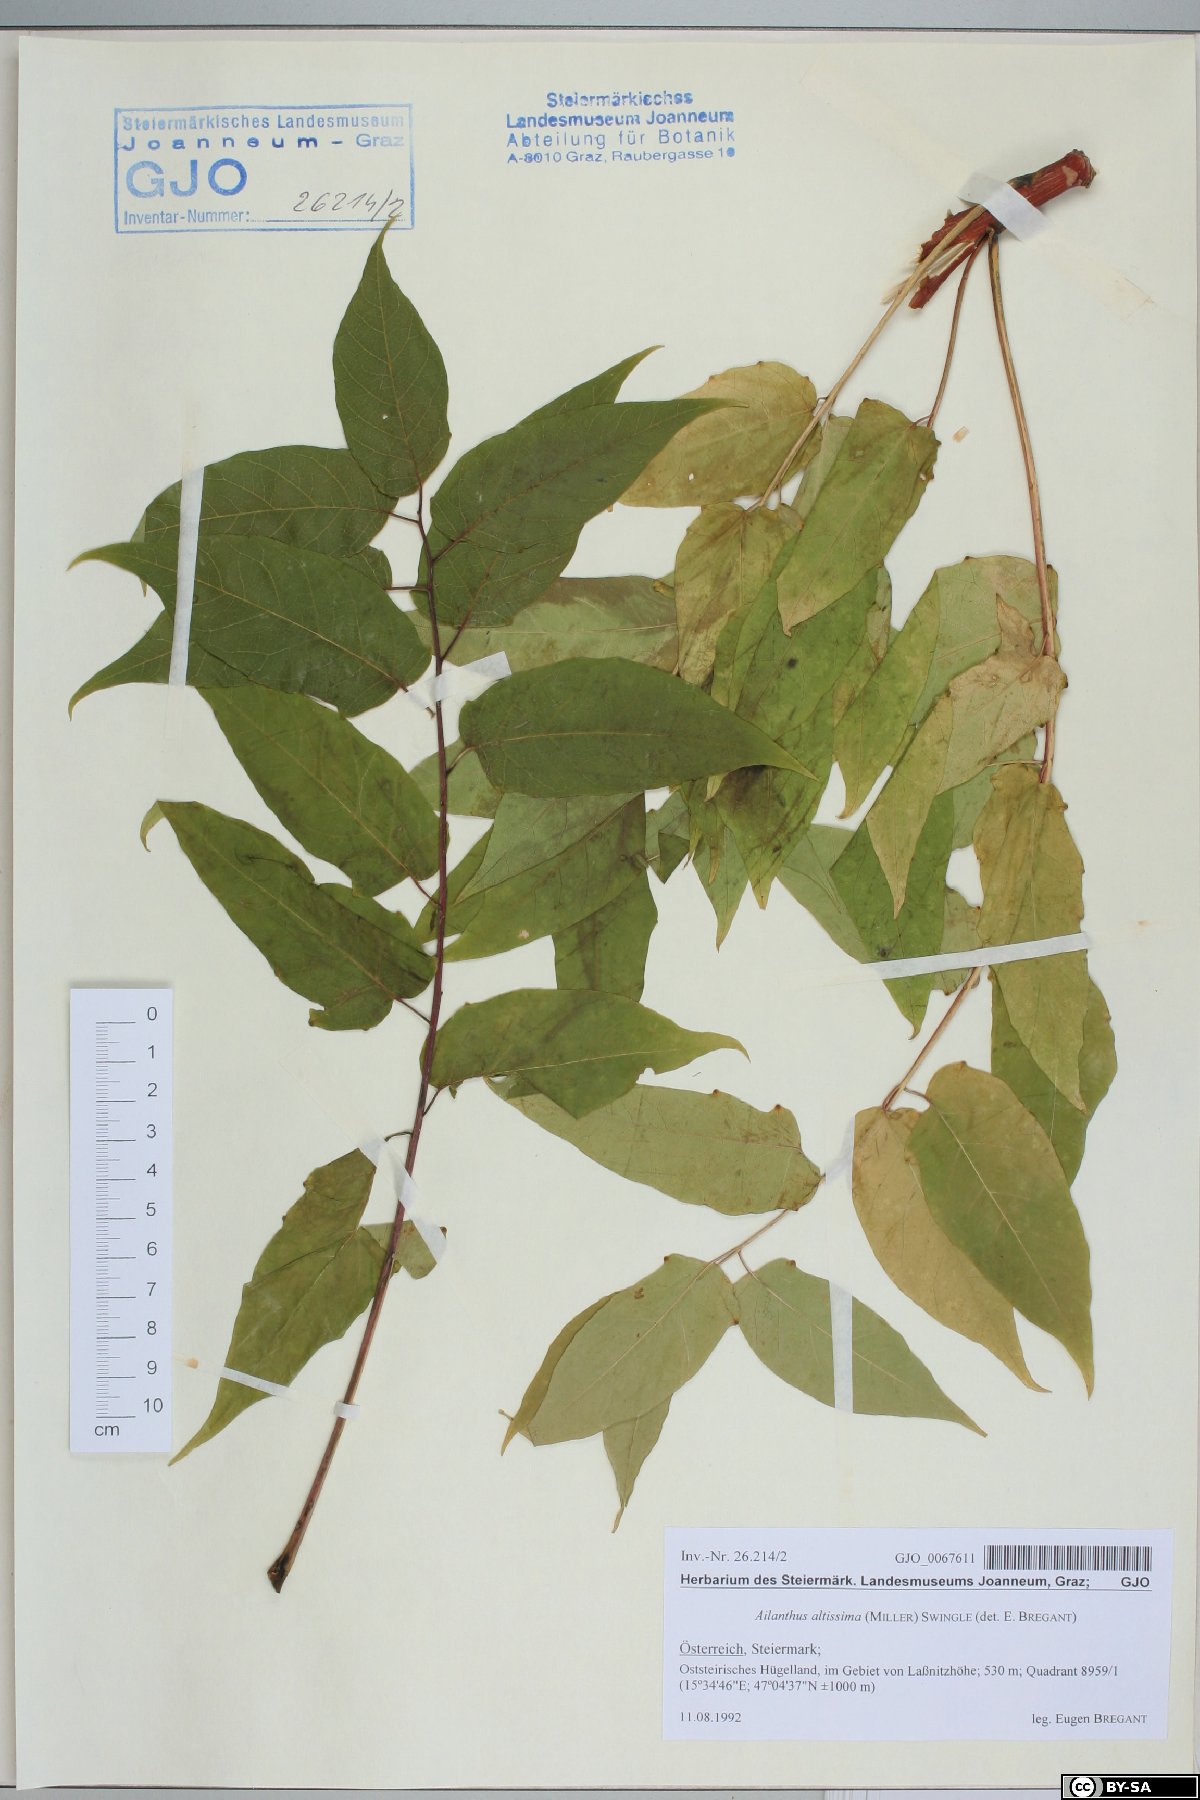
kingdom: Plantae
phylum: Tracheophyta
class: Magnoliopsida
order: Sapindales
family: Simaroubaceae
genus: Ailanthus
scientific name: Ailanthus altissima
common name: Tree-of-heaven
